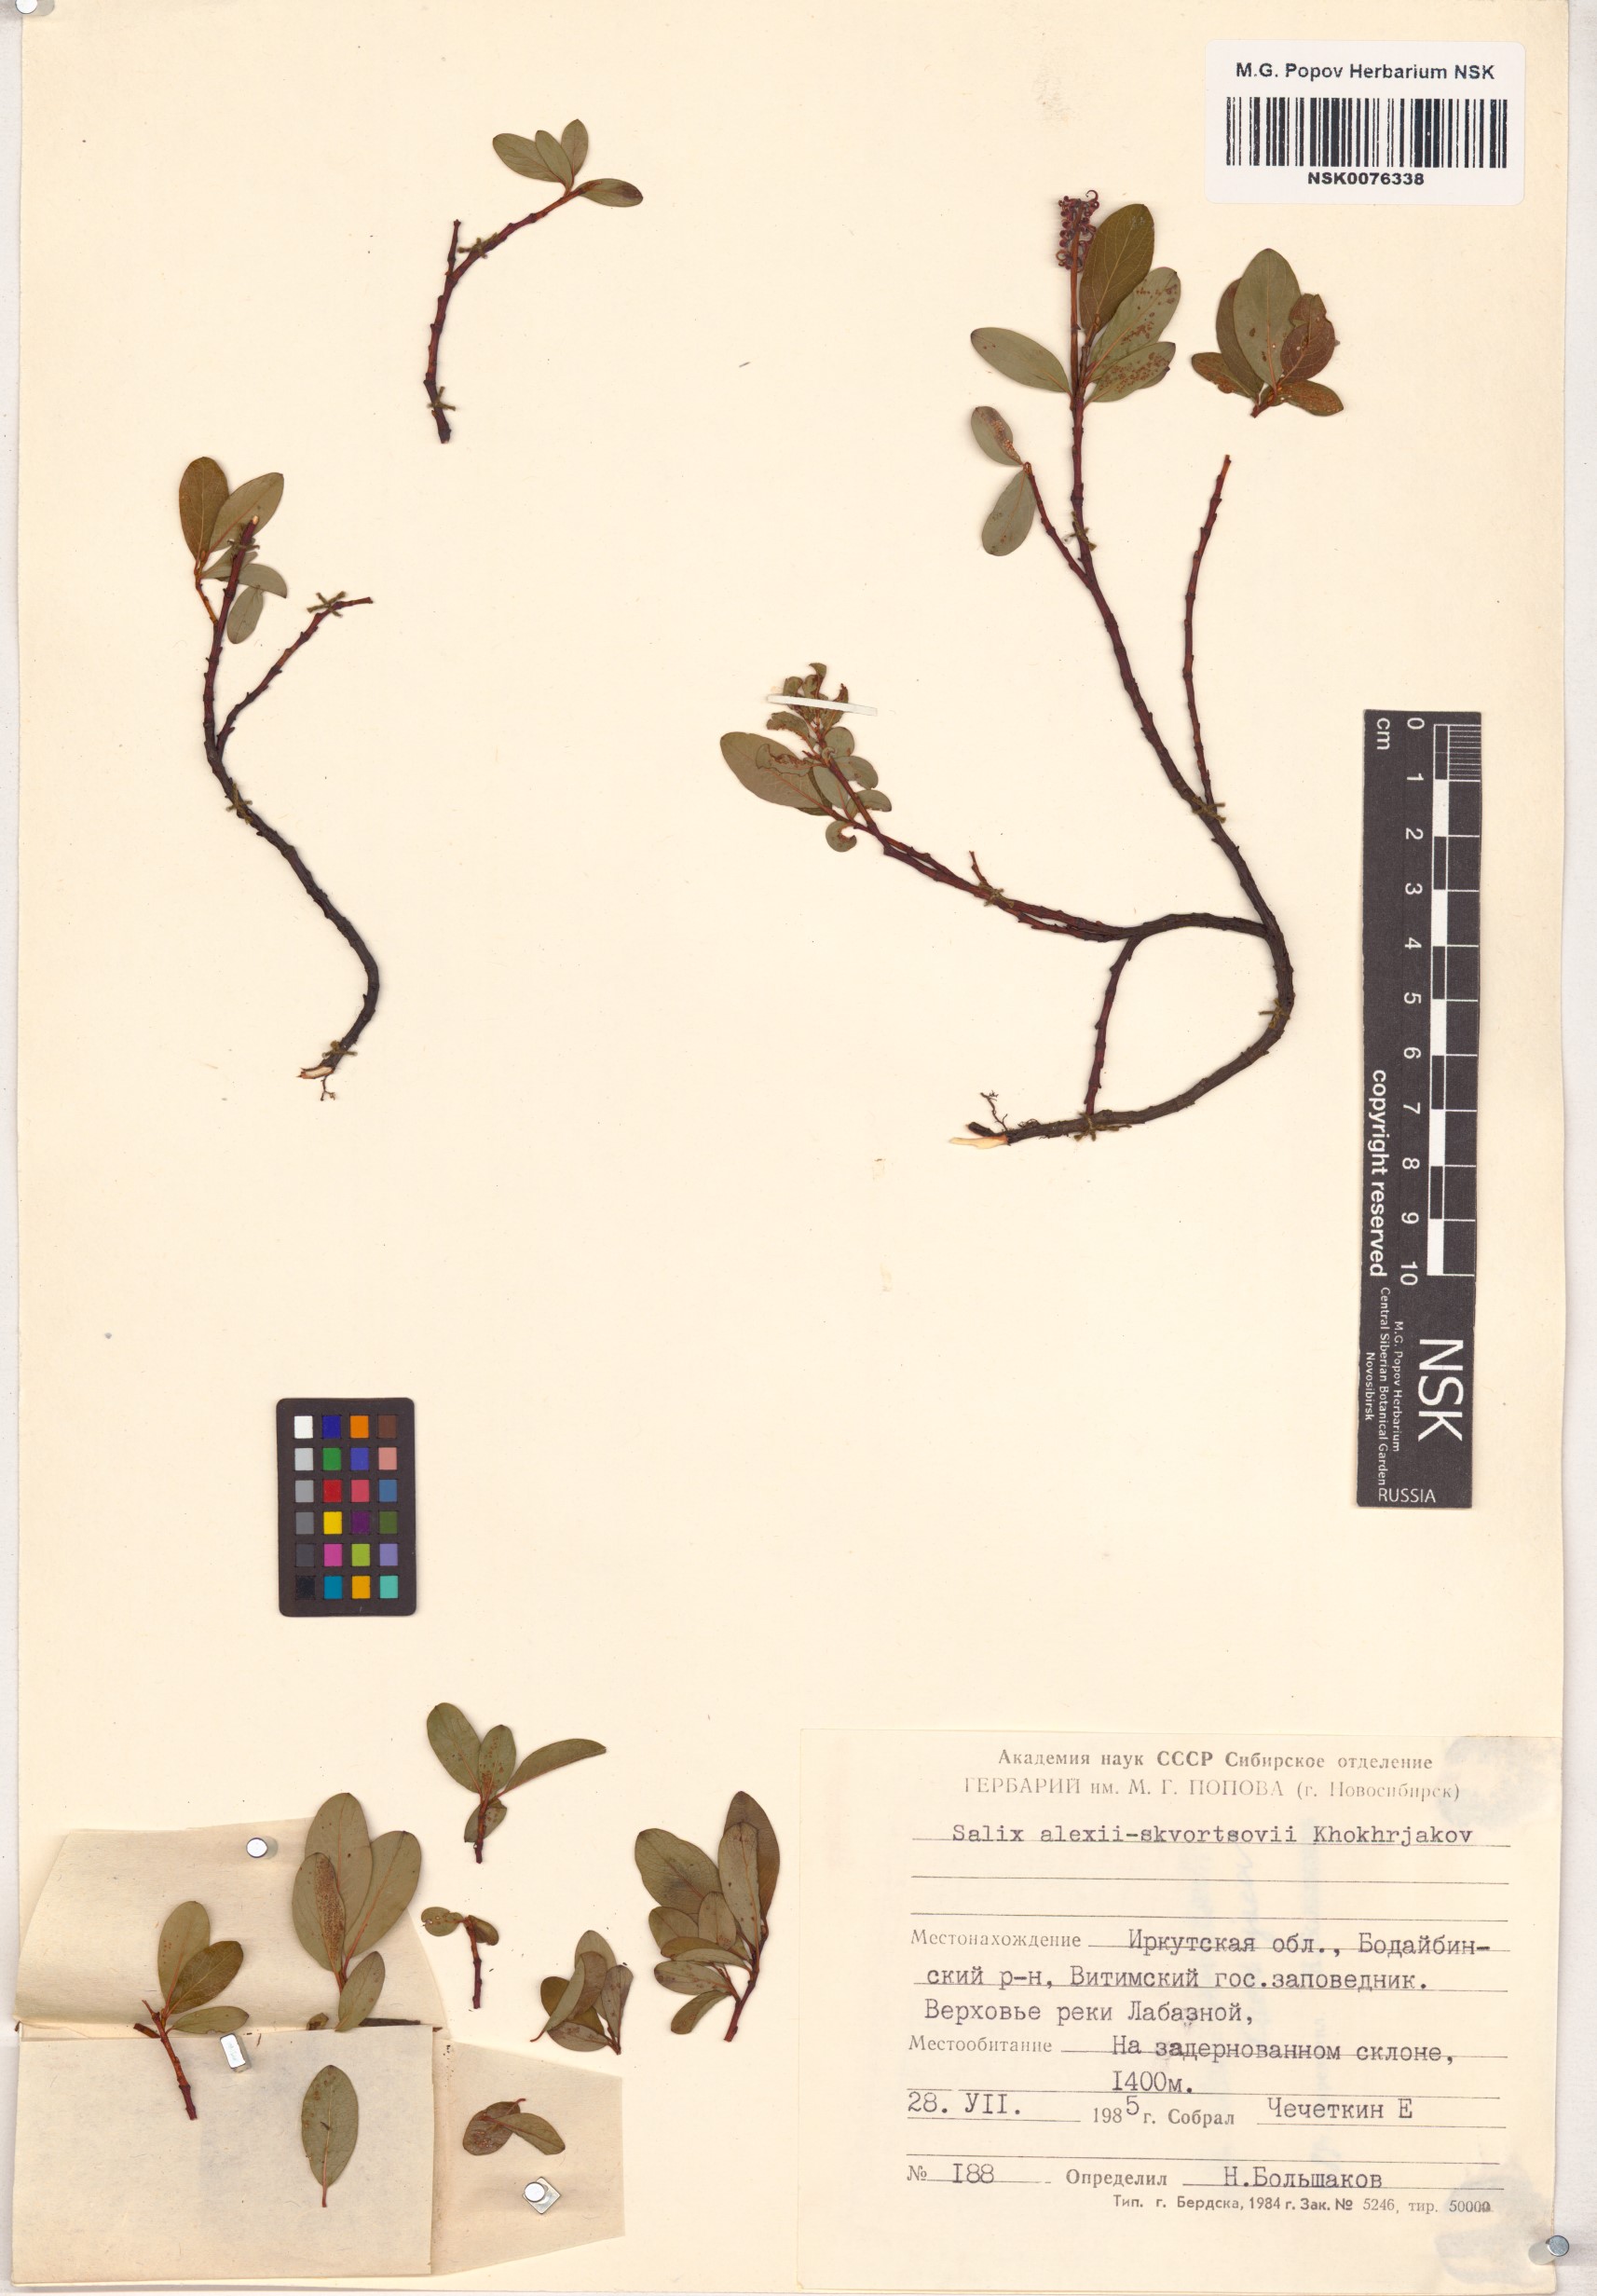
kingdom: Plantae
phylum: Tracheophyta
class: Magnoliopsida
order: Malpighiales
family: Salicaceae
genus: Salix
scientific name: Salix alexii-skvortzovii
